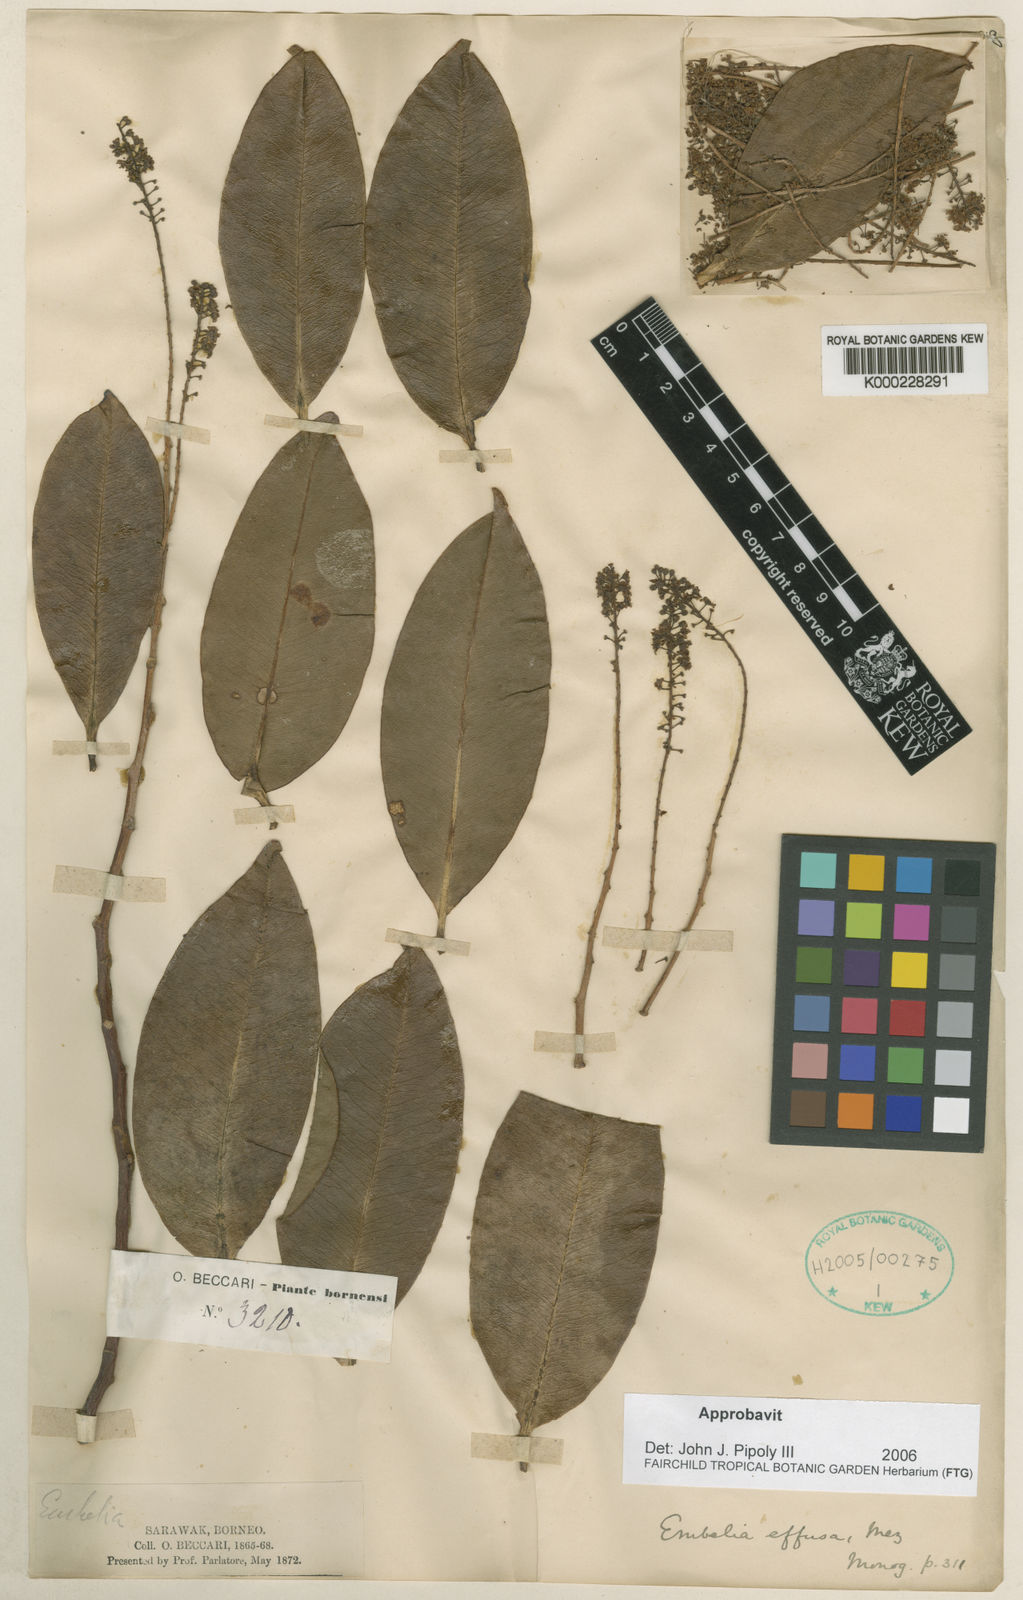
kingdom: Plantae
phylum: Tracheophyta
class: Magnoliopsida
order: Ericales
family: Primulaceae
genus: Embelia
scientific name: Embelia effusa
